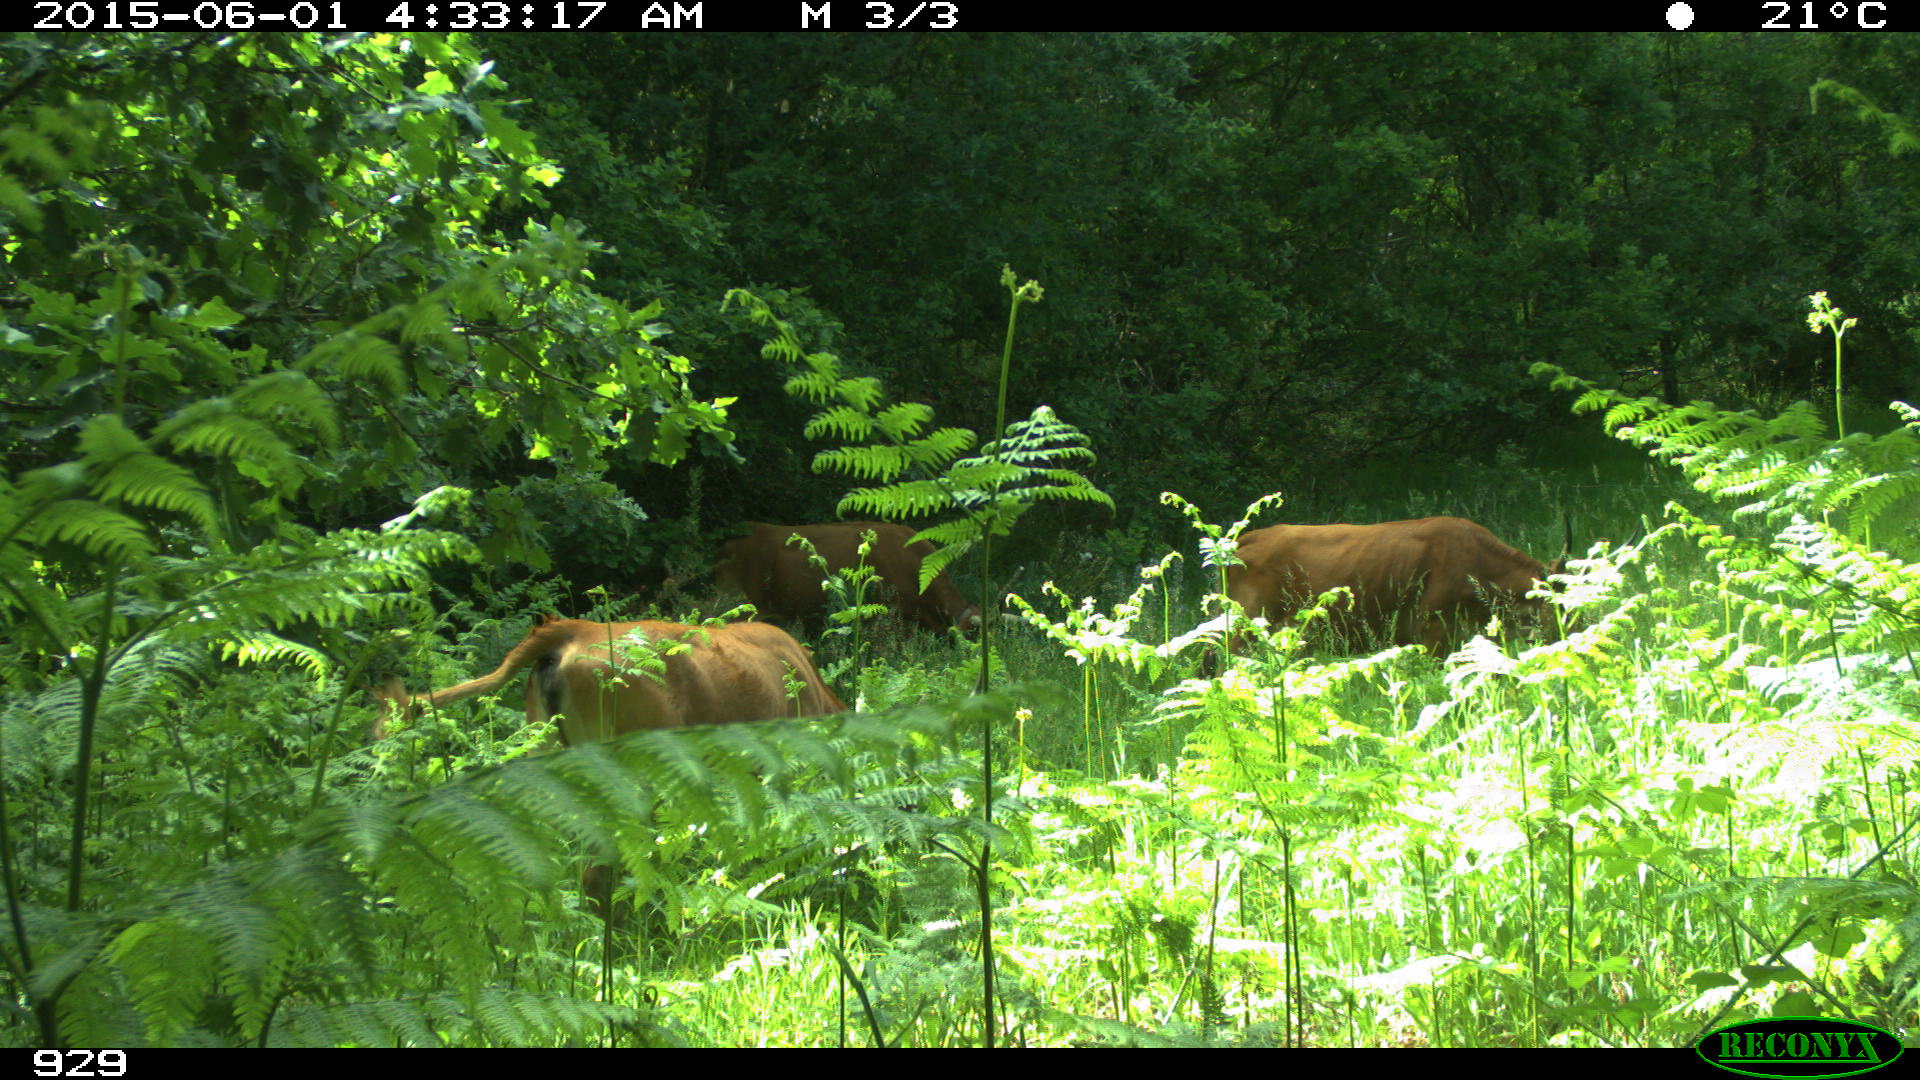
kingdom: Animalia
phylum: Chordata
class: Mammalia
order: Artiodactyla
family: Bovidae
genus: Bos
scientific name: Bos taurus
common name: Domesticated cattle
